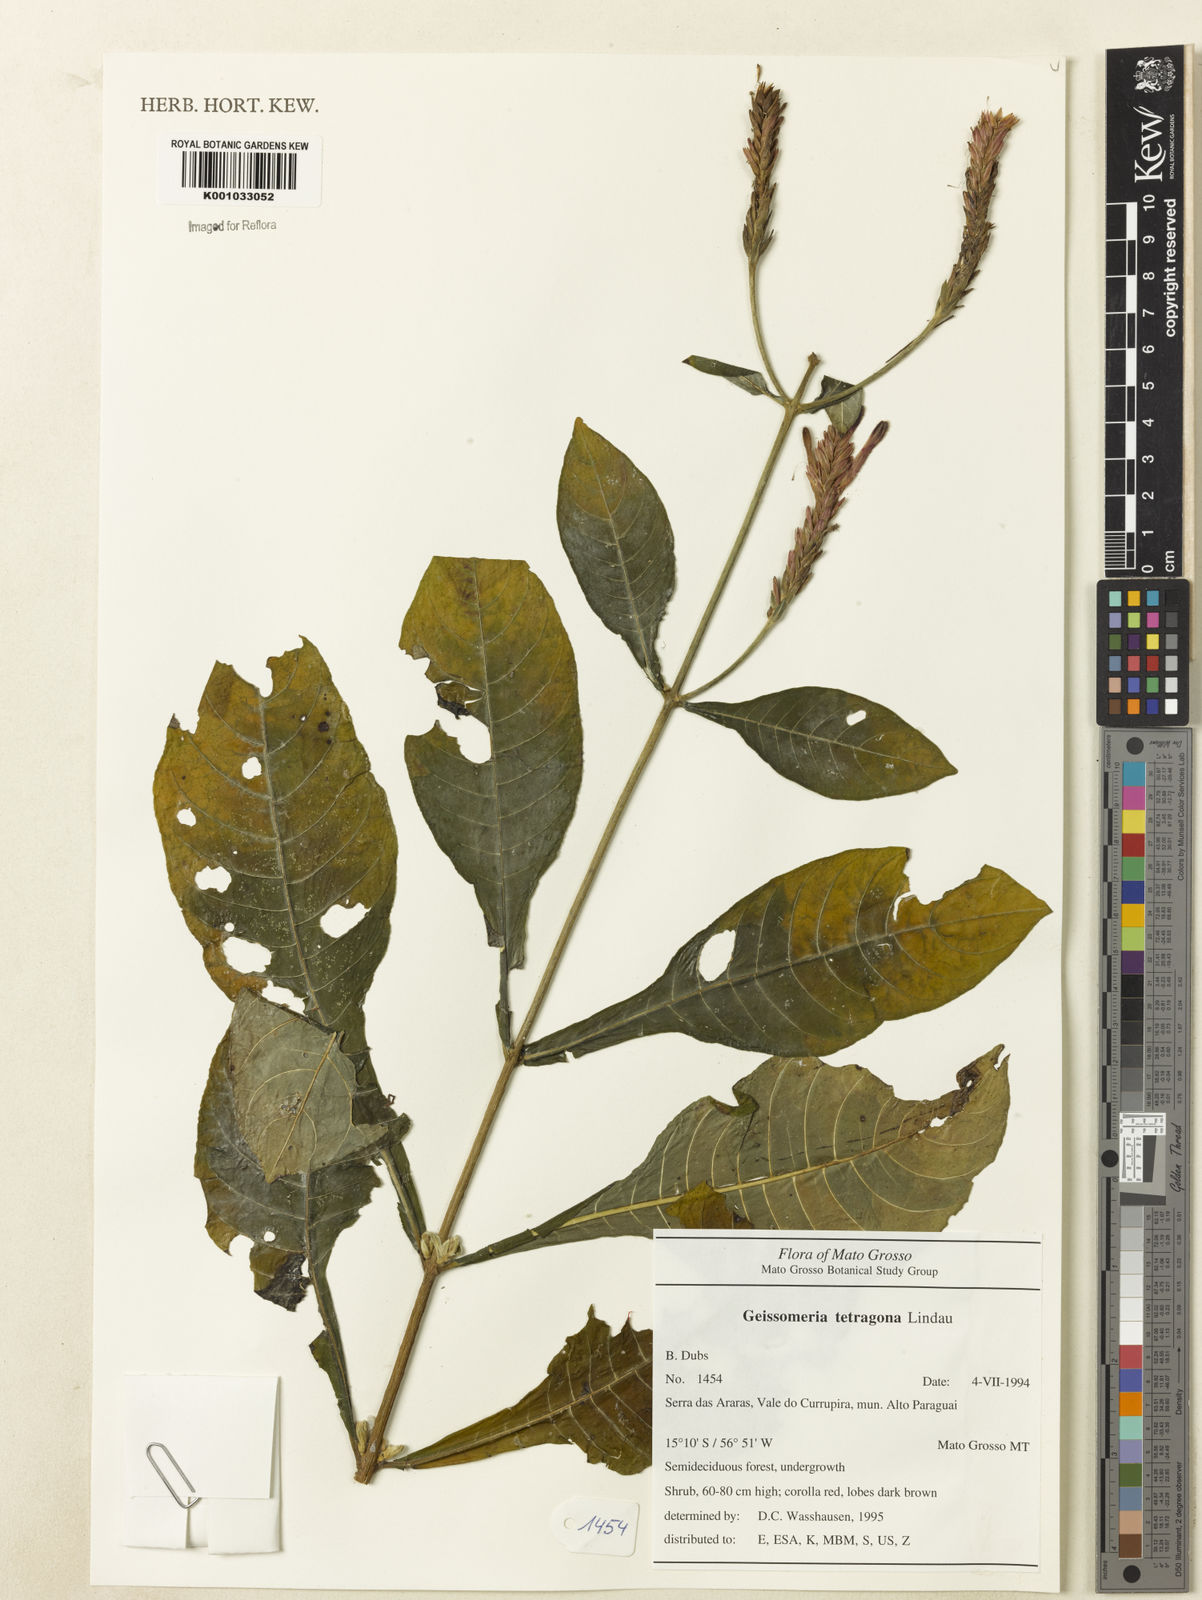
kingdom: Plantae
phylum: Tracheophyta
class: Magnoliopsida
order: Lamiales
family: Acanthaceae
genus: Aphelandra
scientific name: Aphelandra longiflora
